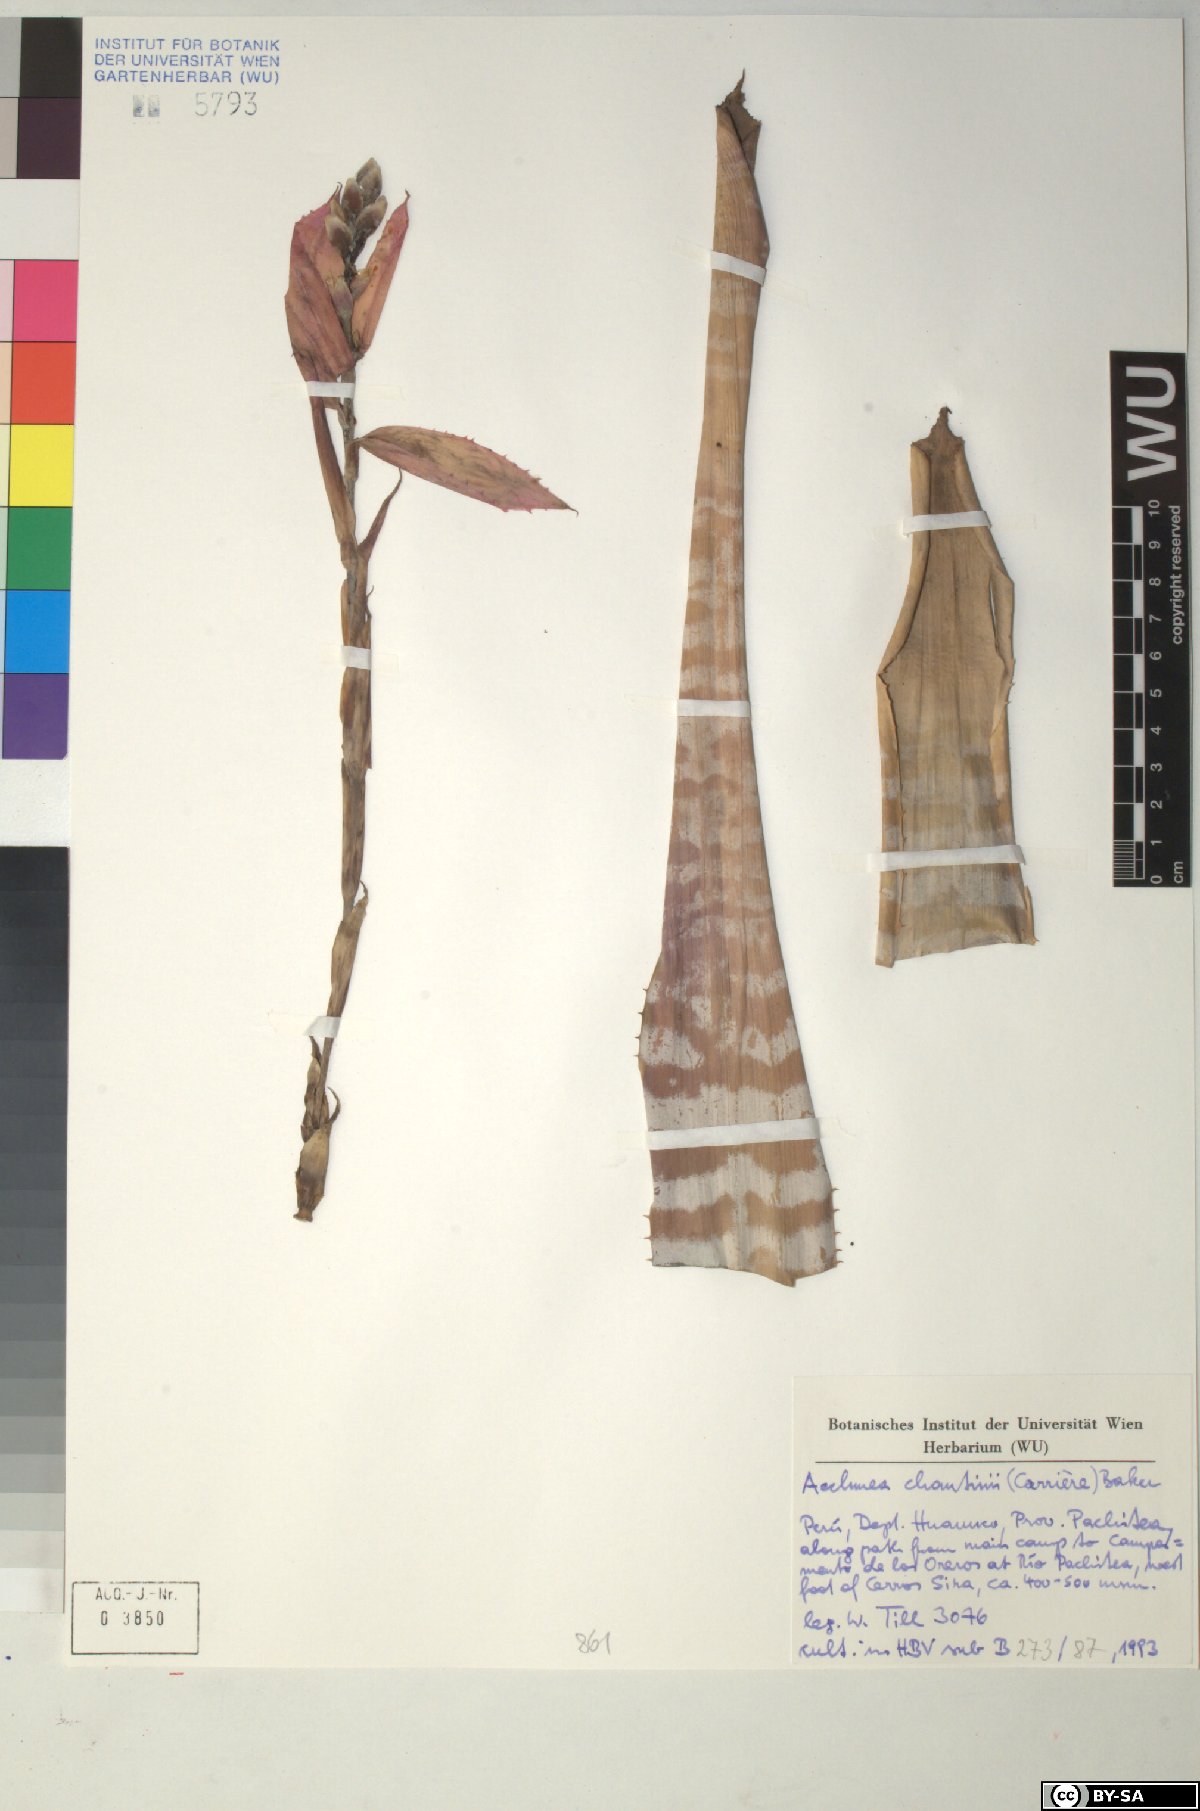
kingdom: Plantae
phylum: Tracheophyta
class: Liliopsida
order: Poales
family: Bromeliaceae
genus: Aechmea
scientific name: Aechmea chantinii
